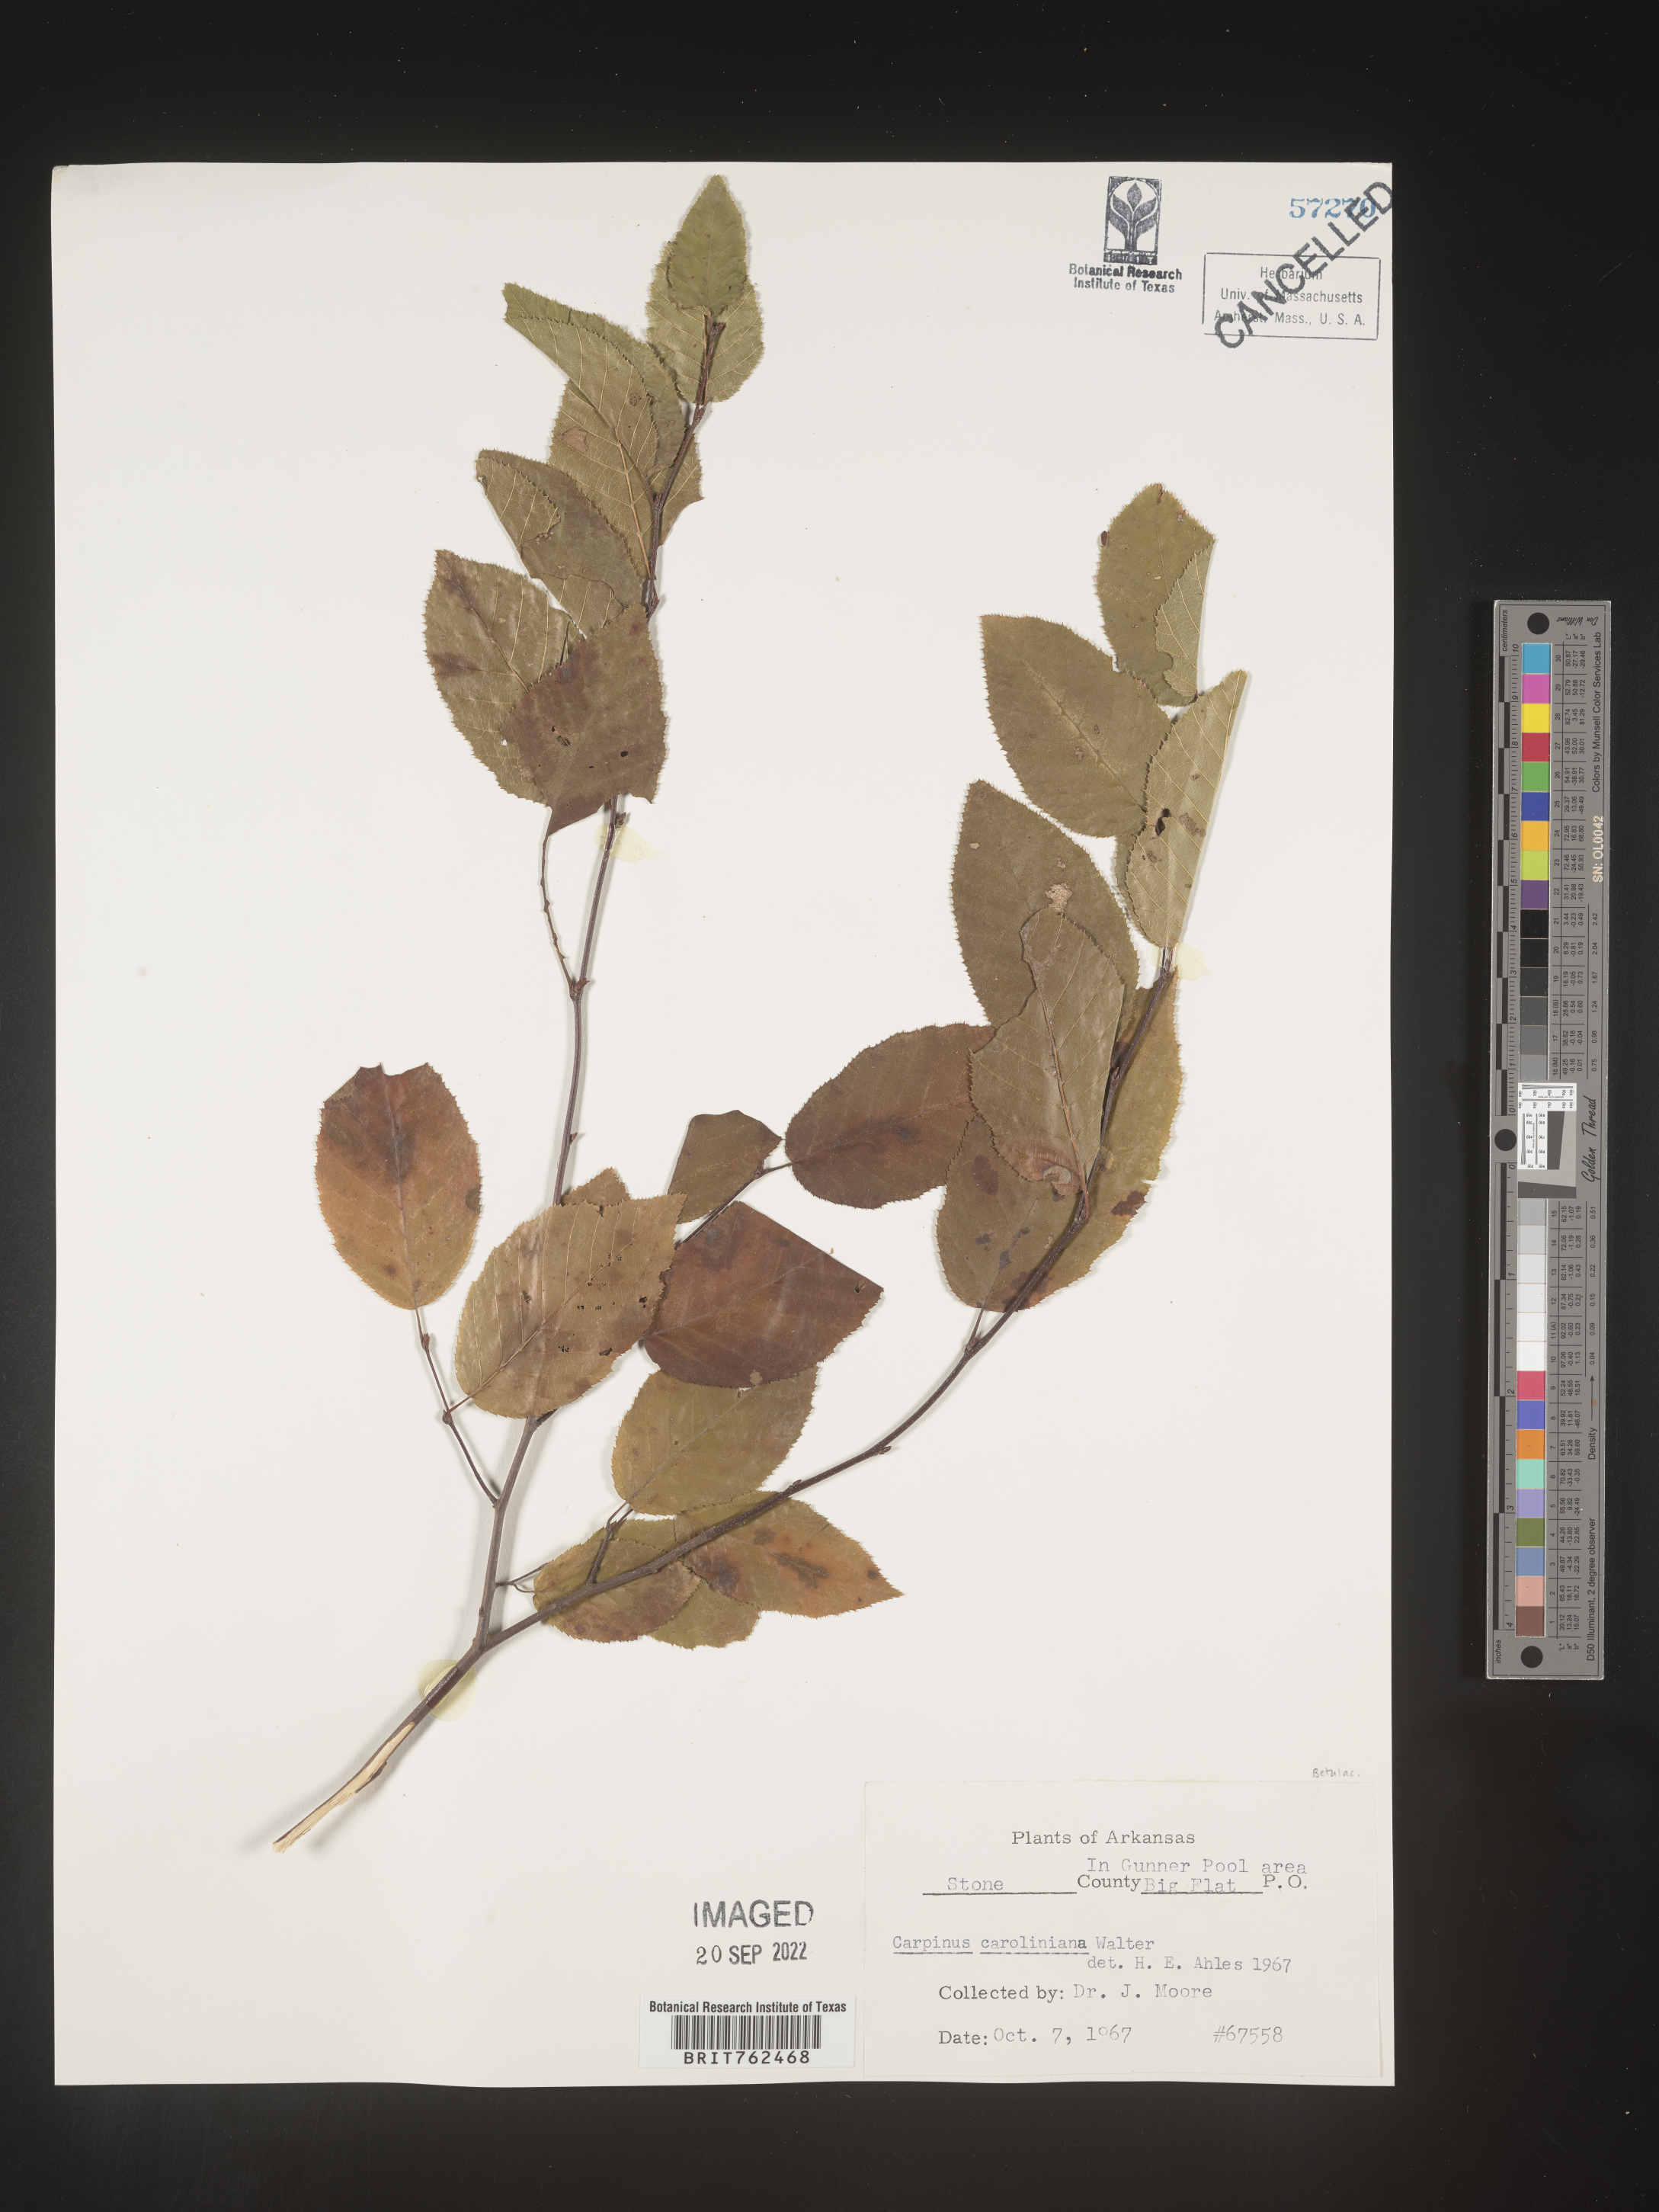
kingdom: Plantae
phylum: Tracheophyta
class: Magnoliopsida
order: Fagales
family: Betulaceae
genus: Carpinus
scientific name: Carpinus caroliniana
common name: American hornbeam
